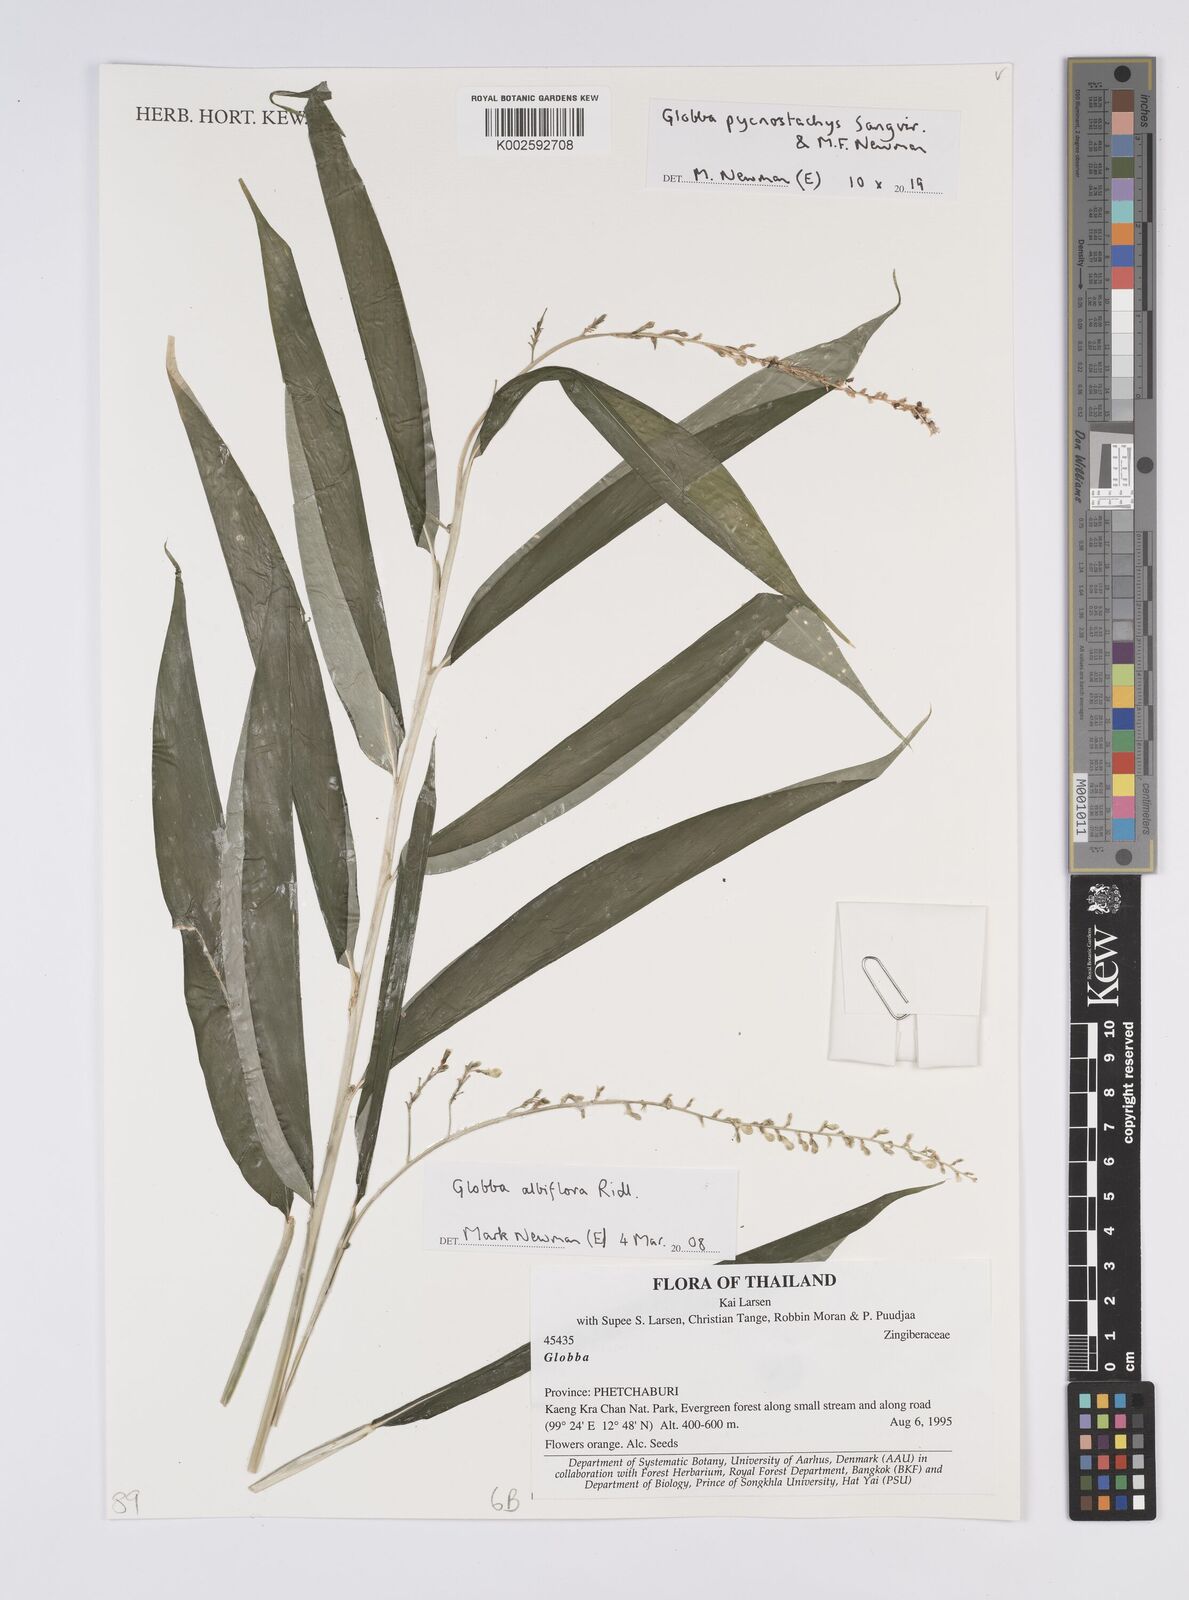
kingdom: Plantae
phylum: Tracheophyta
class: Liliopsida
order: Zingiberales
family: Zingiberaceae
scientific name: Zingiberaceae
